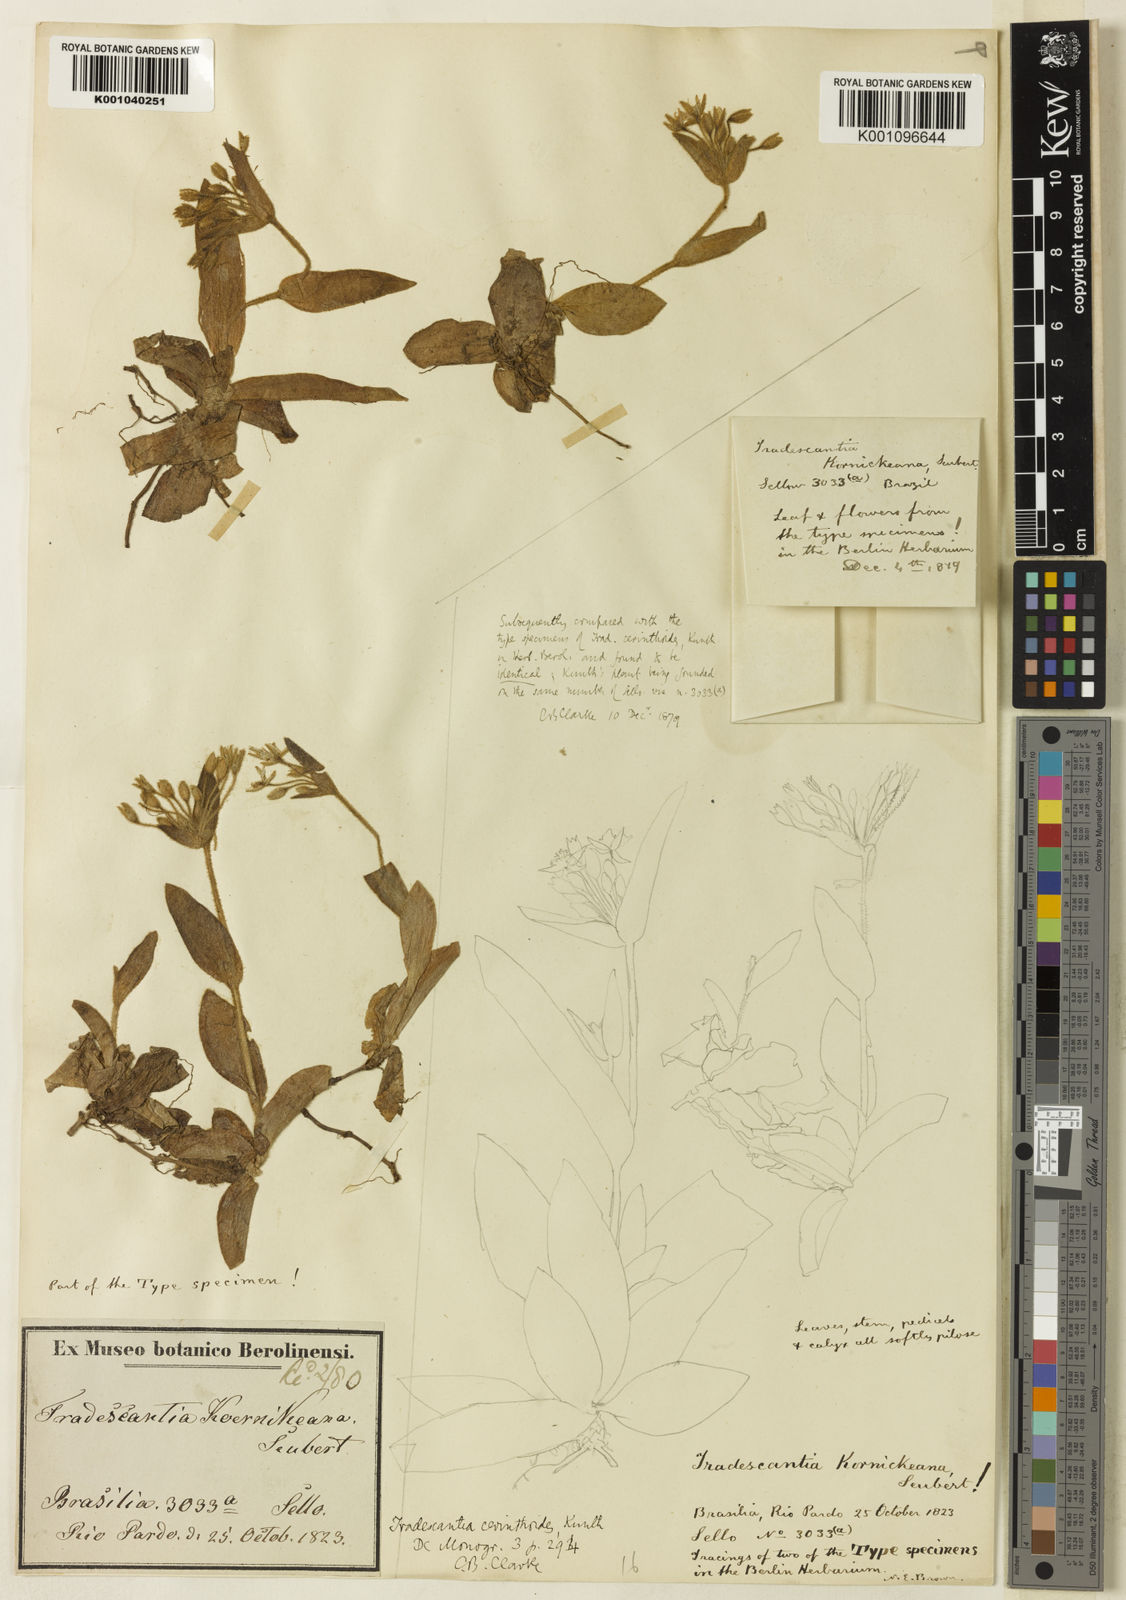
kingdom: Plantae
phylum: Tracheophyta
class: Liliopsida
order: Commelinales
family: Commelinaceae
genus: Tradescantia
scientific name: Tradescantia cerinthoides
